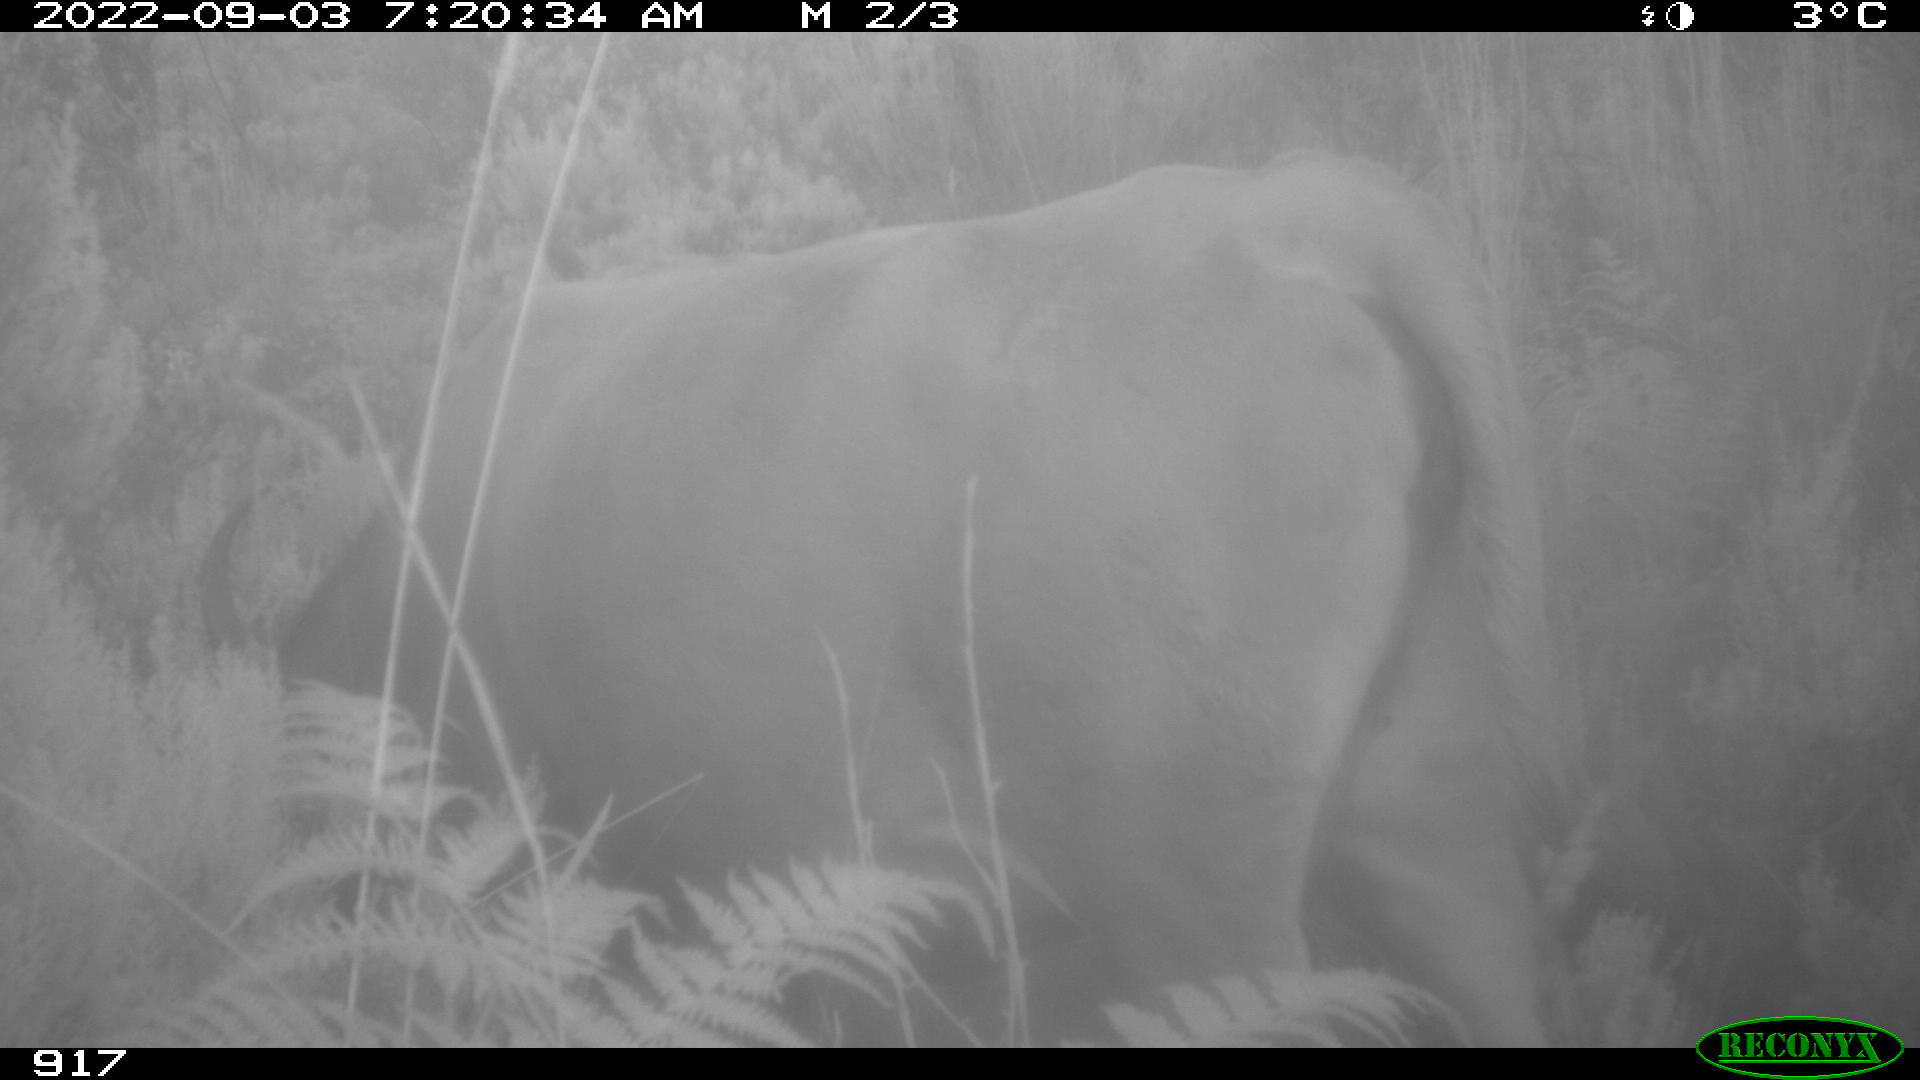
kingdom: Animalia
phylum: Chordata
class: Mammalia
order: Artiodactyla
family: Bovidae
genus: Bos
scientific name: Bos taurus
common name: Domesticated cattle
